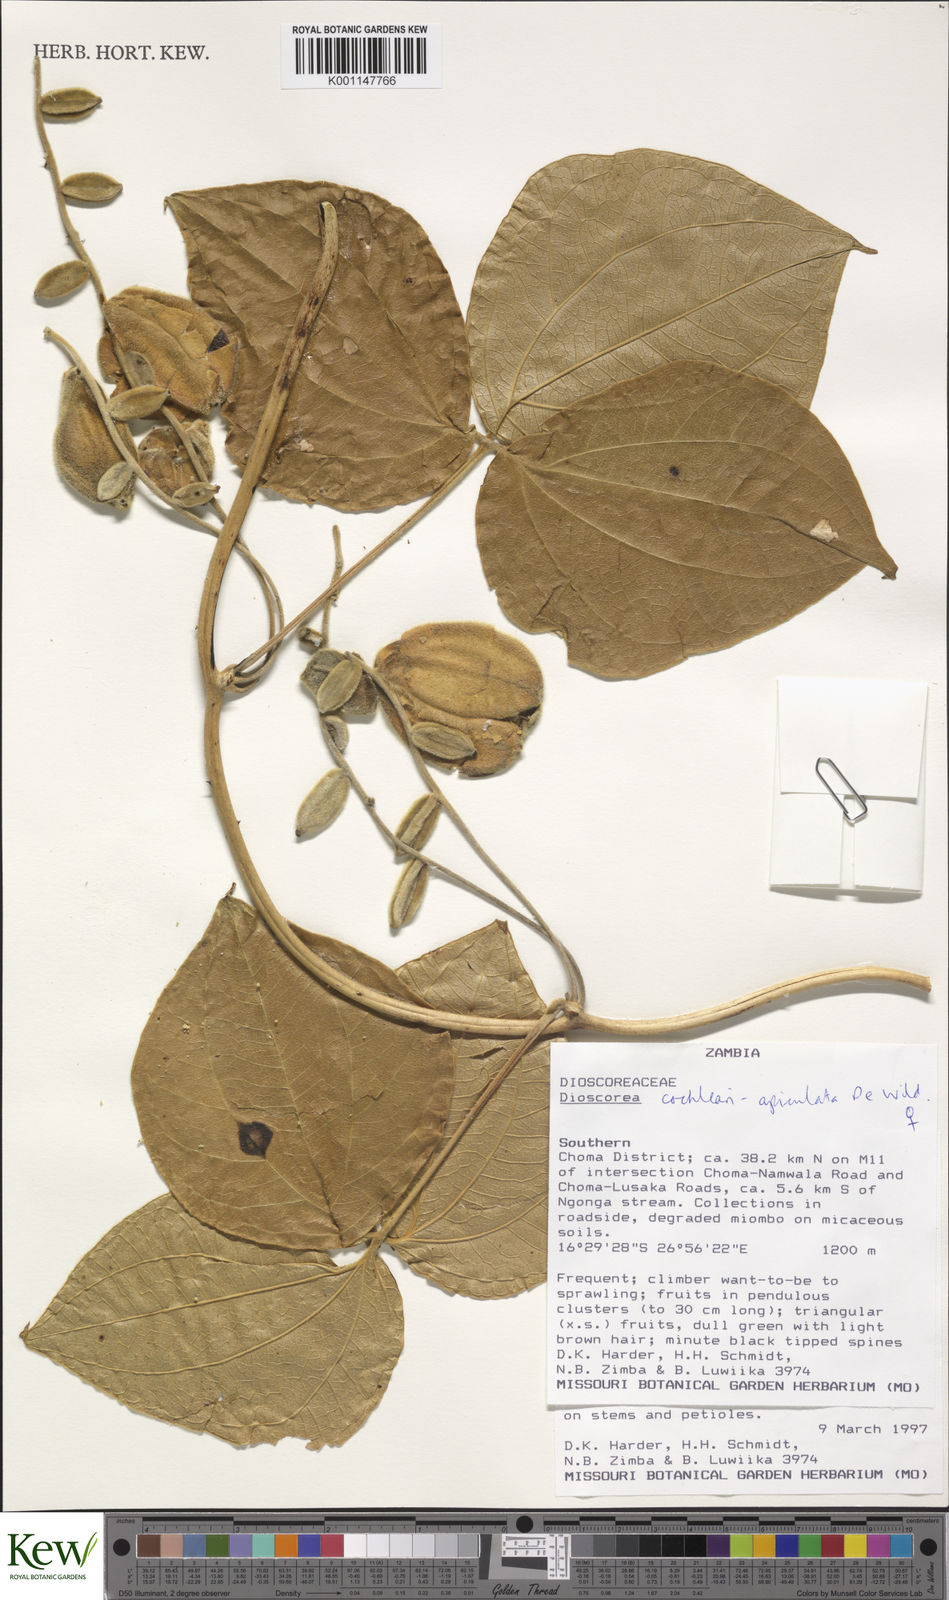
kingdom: Plantae
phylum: Tracheophyta
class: Liliopsida
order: Dioscoreales
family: Dioscoreaceae
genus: Dioscorea
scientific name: Dioscorea cochleariapiculata
